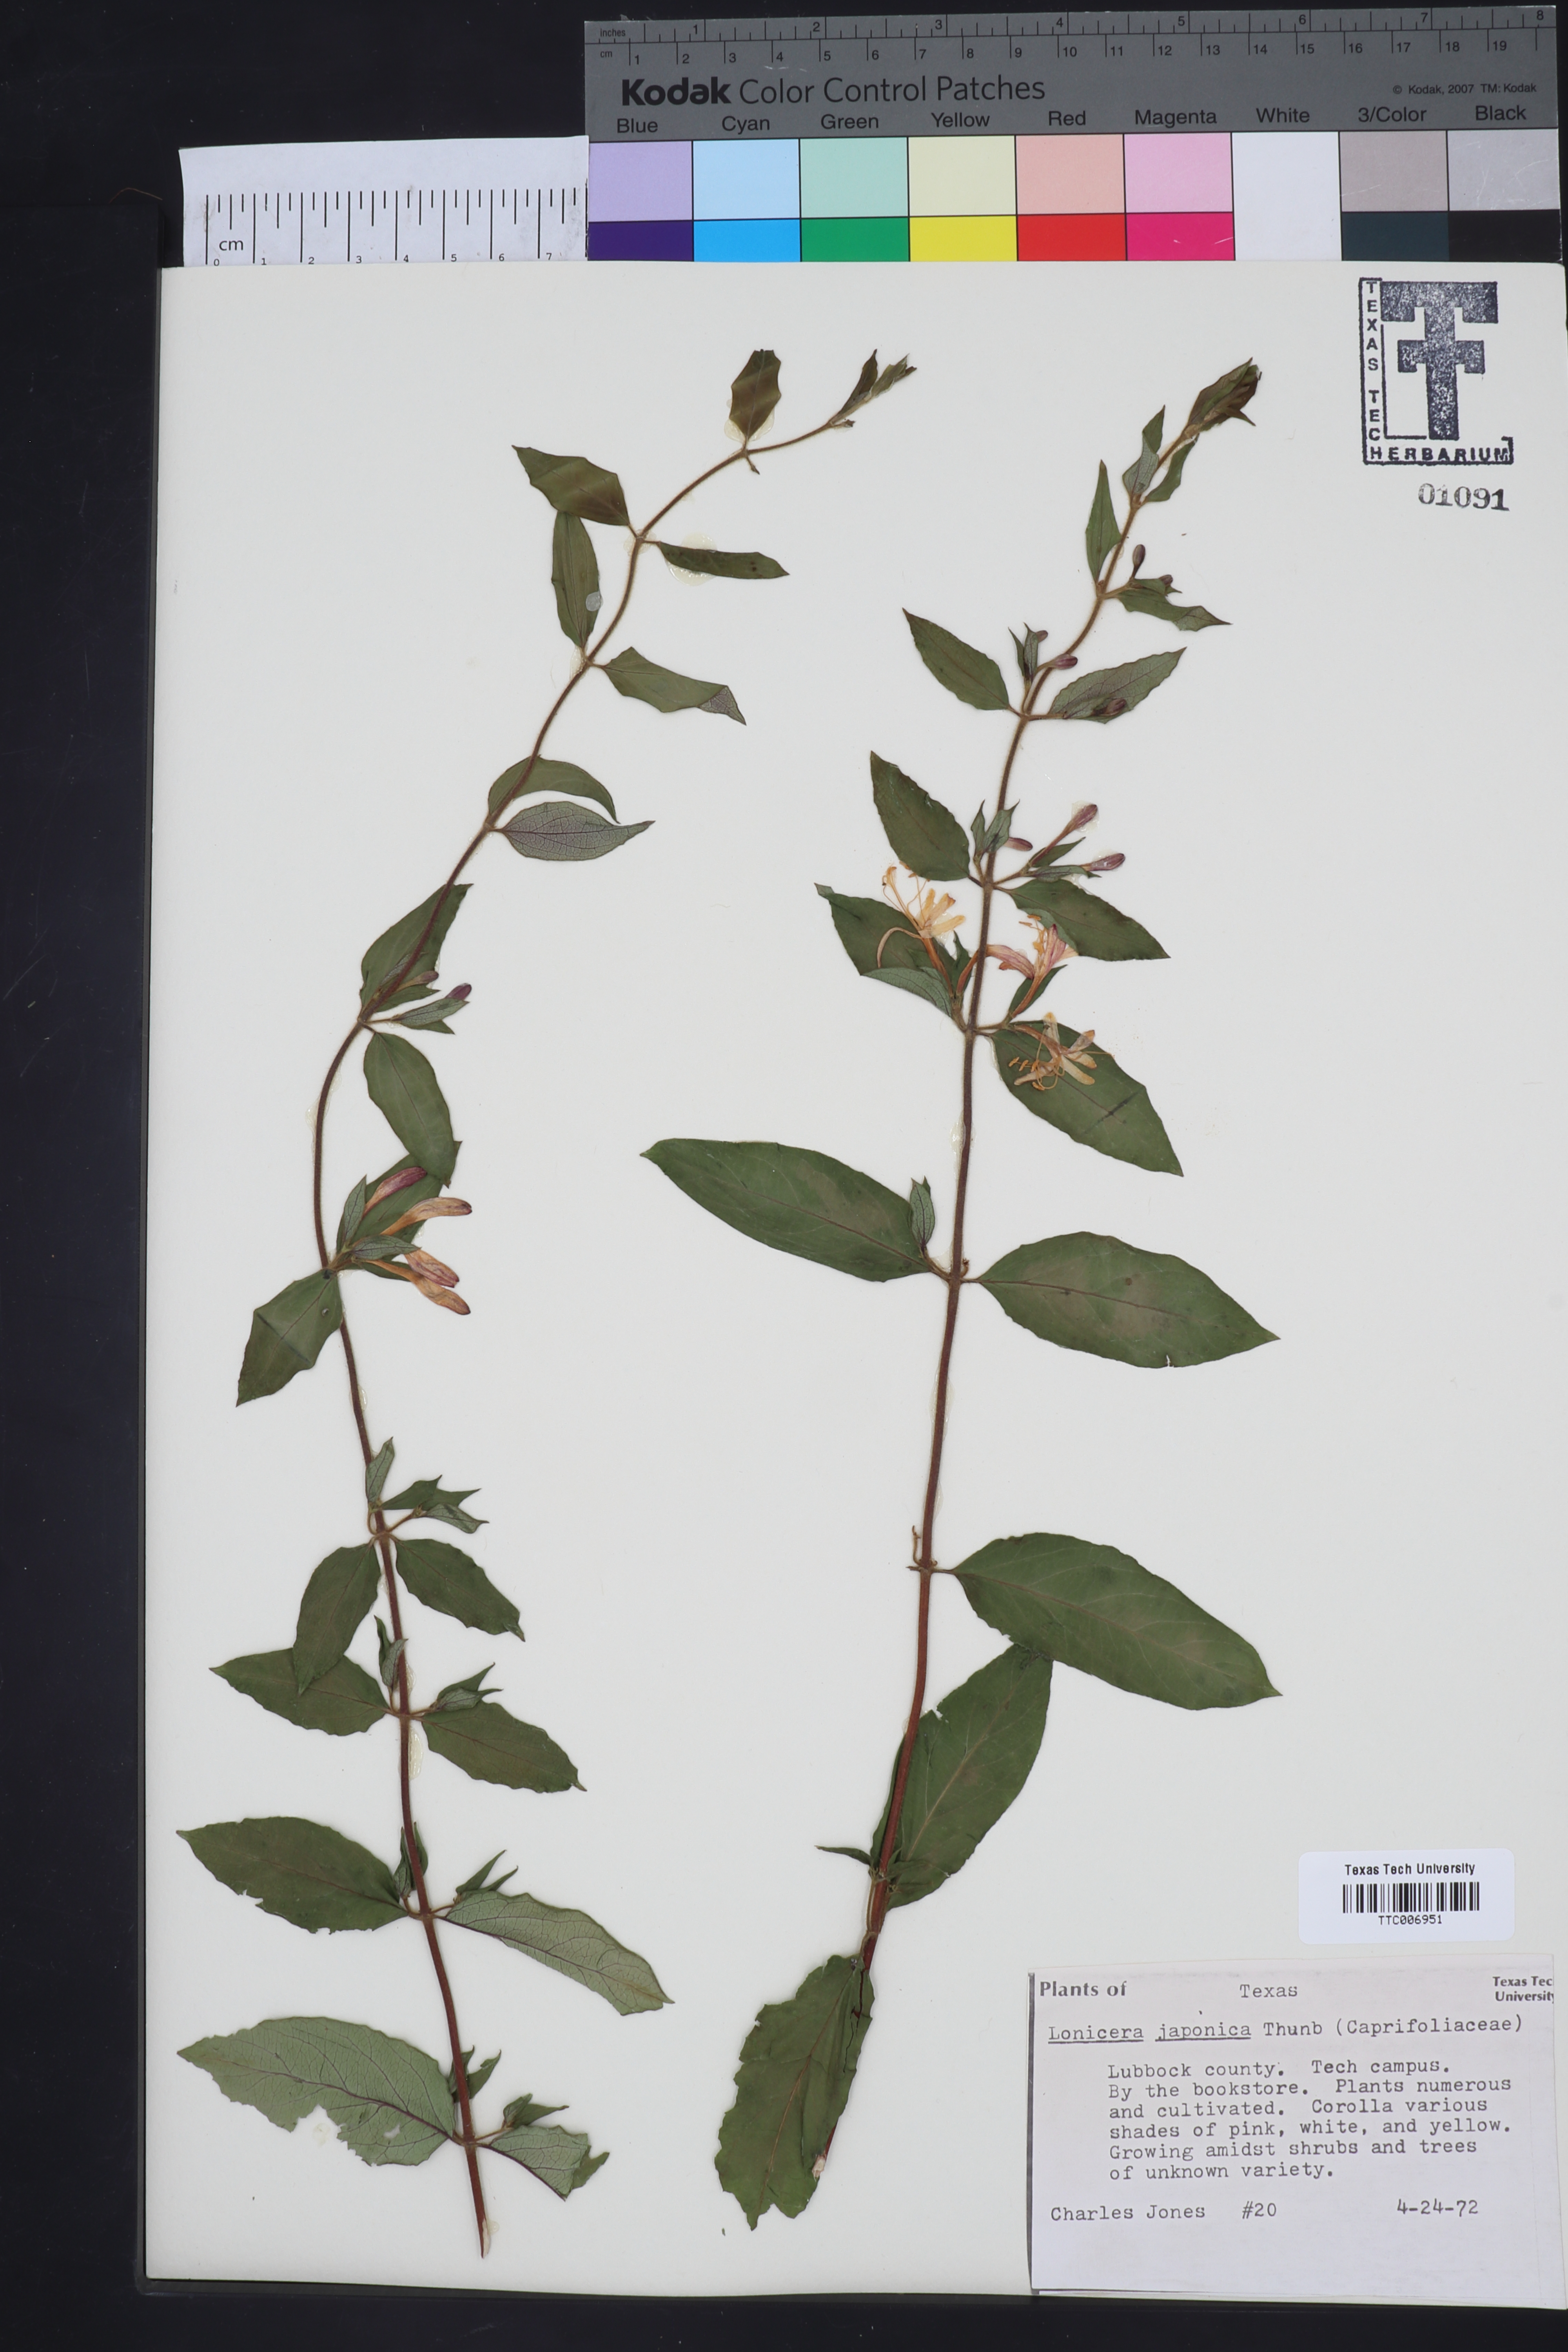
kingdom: Plantae
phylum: Tracheophyta
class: Magnoliopsida
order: Dipsacales
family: Caprifoliaceae
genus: Lonicera
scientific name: Lonicera japonica
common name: Japanese honeysuckle
